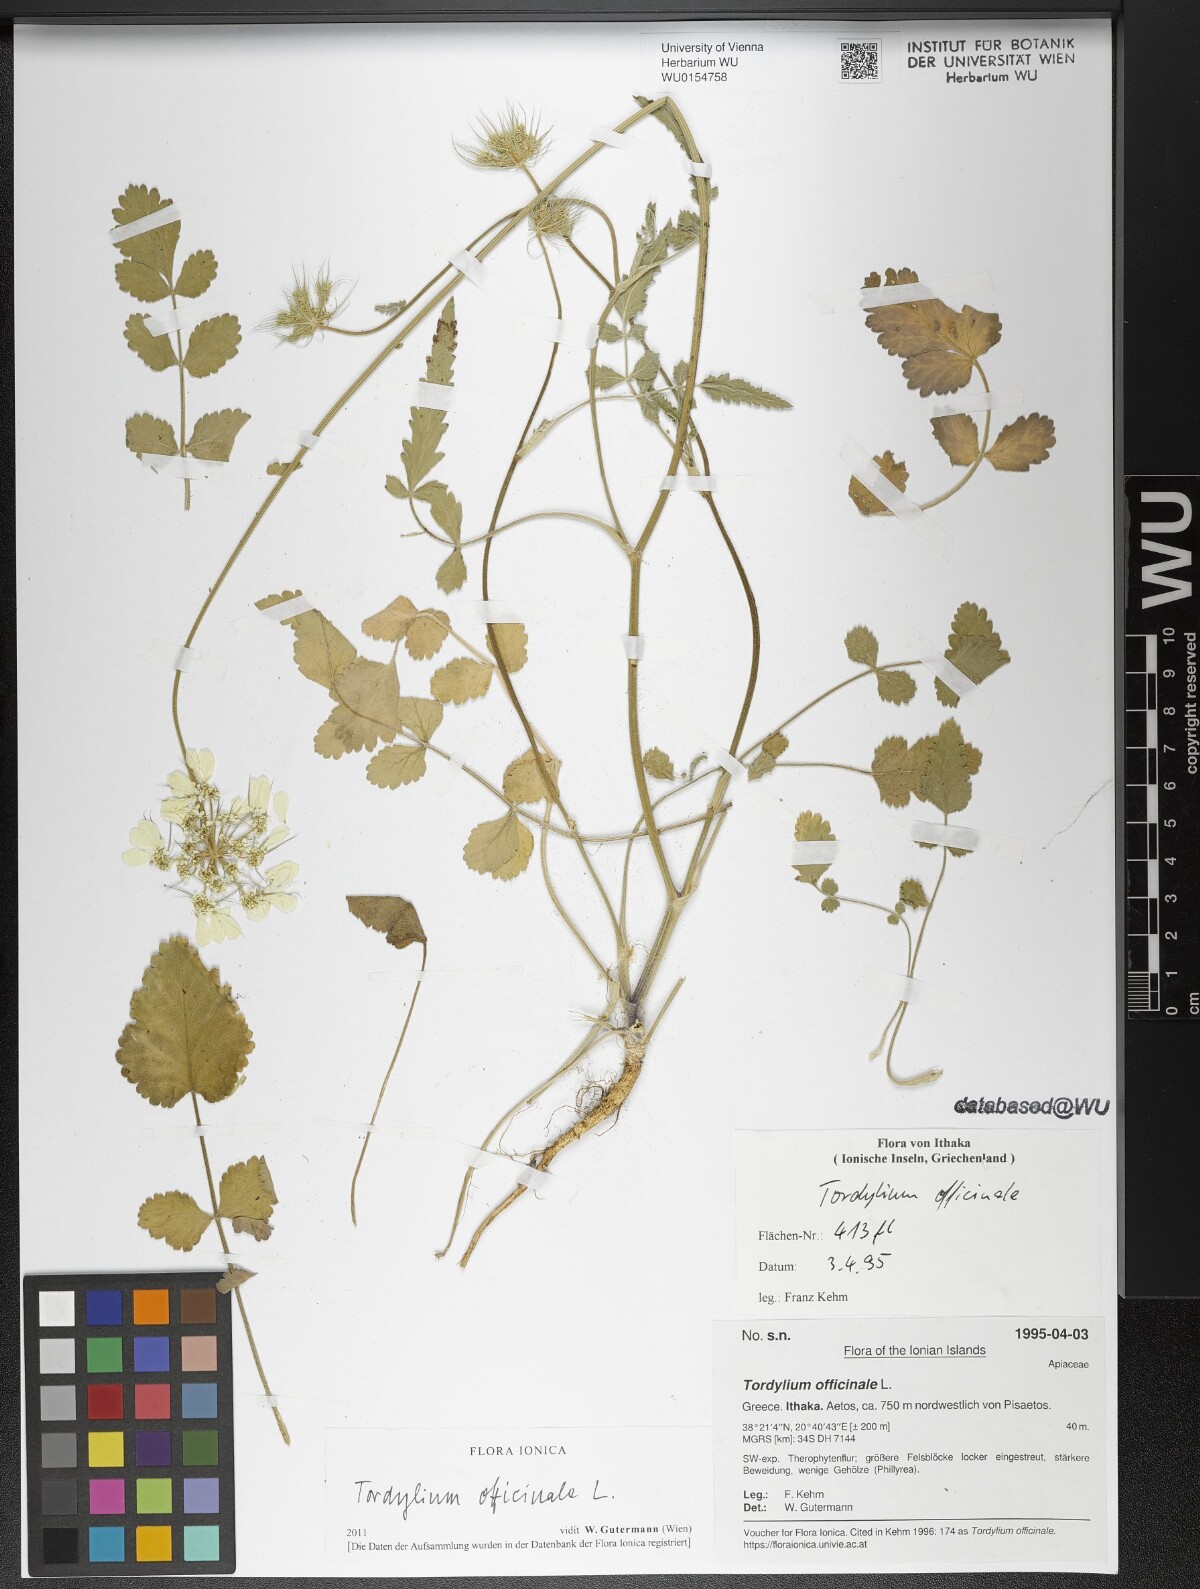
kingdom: Plantae
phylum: Tracheophyta
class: Magnoliopsida
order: Apiales
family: Apiaceae
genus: Tordylium
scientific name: Tordylium officinale
